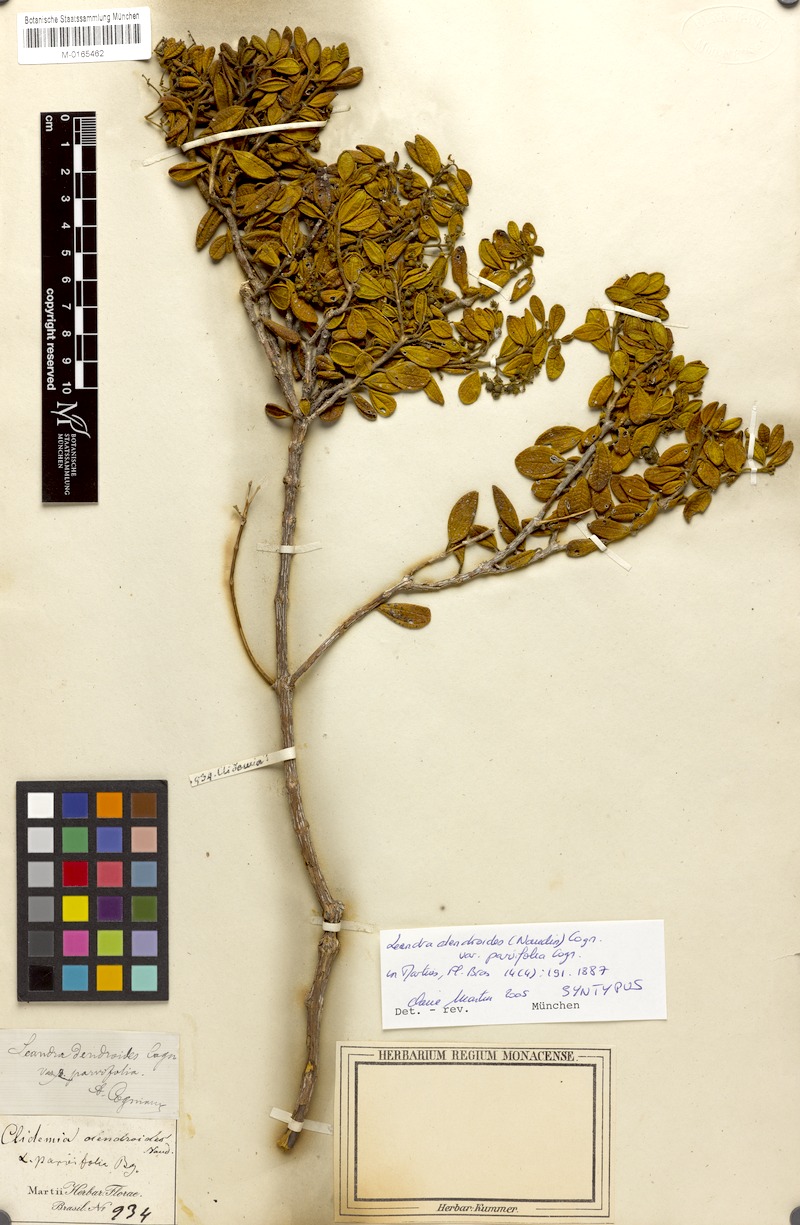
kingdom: Plantae
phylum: Tracheophyta
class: Magnoliopsida
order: Myrtales
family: Melastomataceae
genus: Miconia
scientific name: Miconia dendroides
